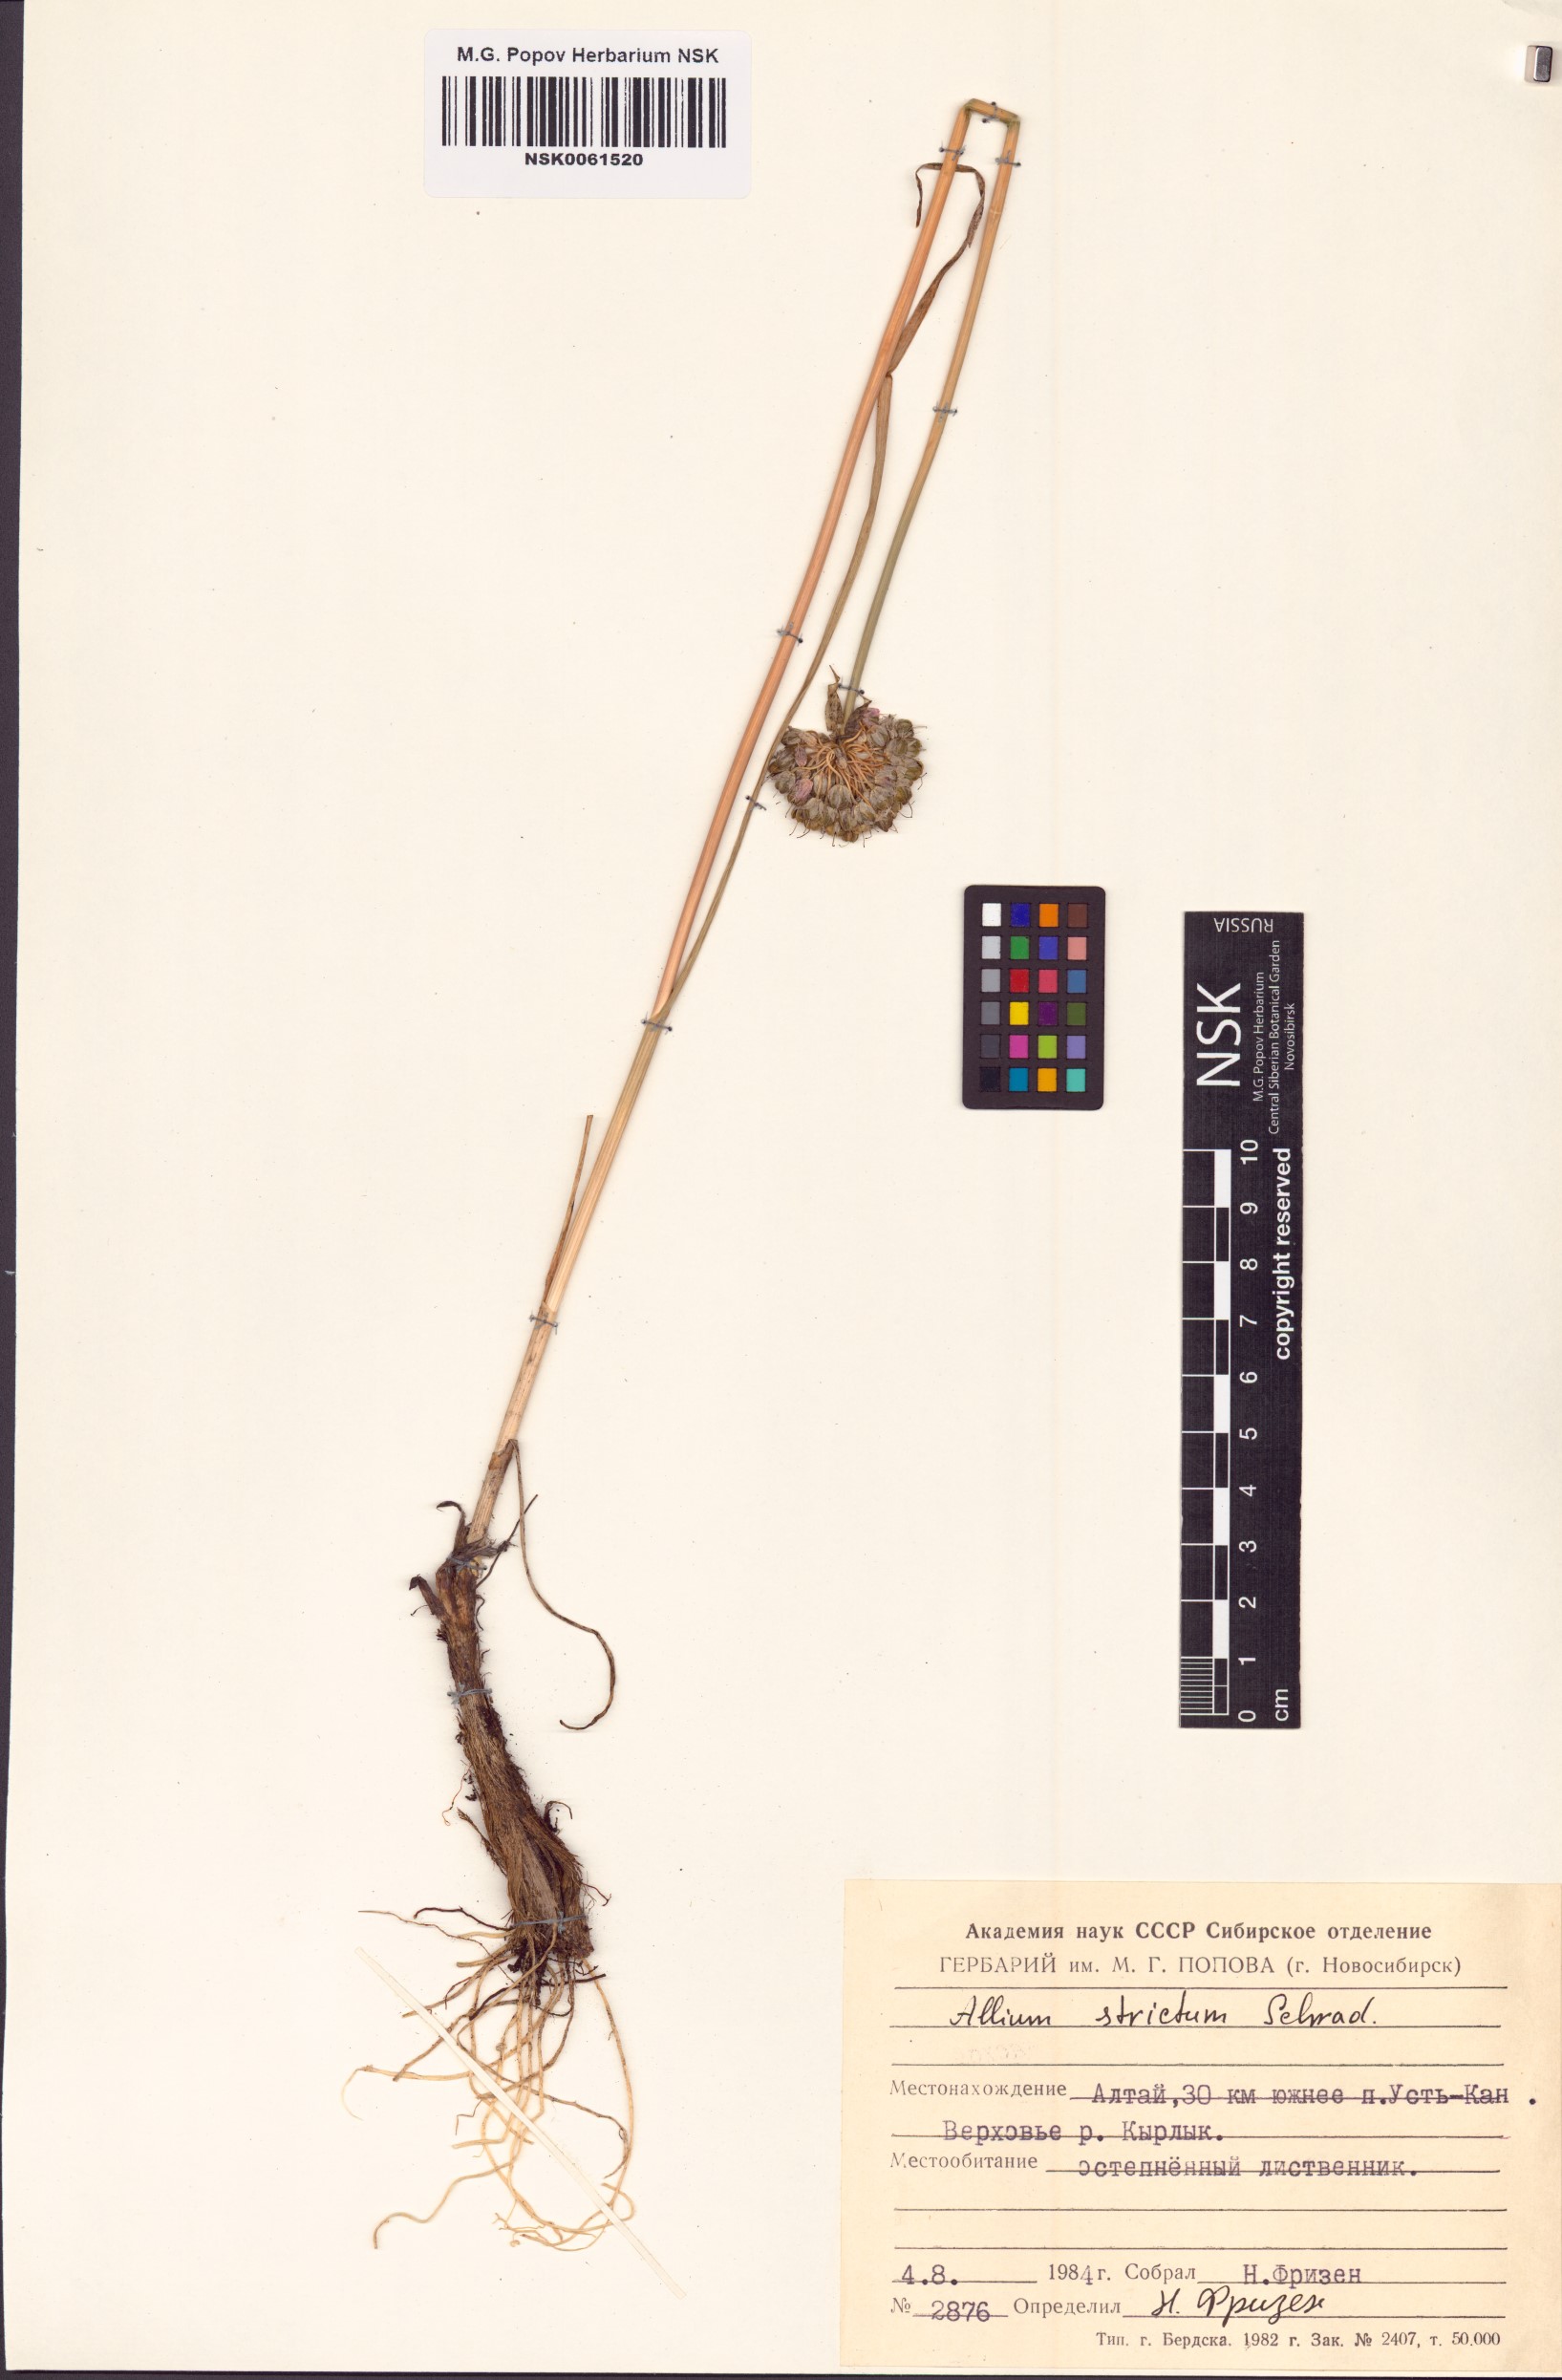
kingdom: Plantae
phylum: Tracheophyta
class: Liliopsida
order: Asparagales
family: Amaryllidaceae
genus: Allium
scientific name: Allium strictum
